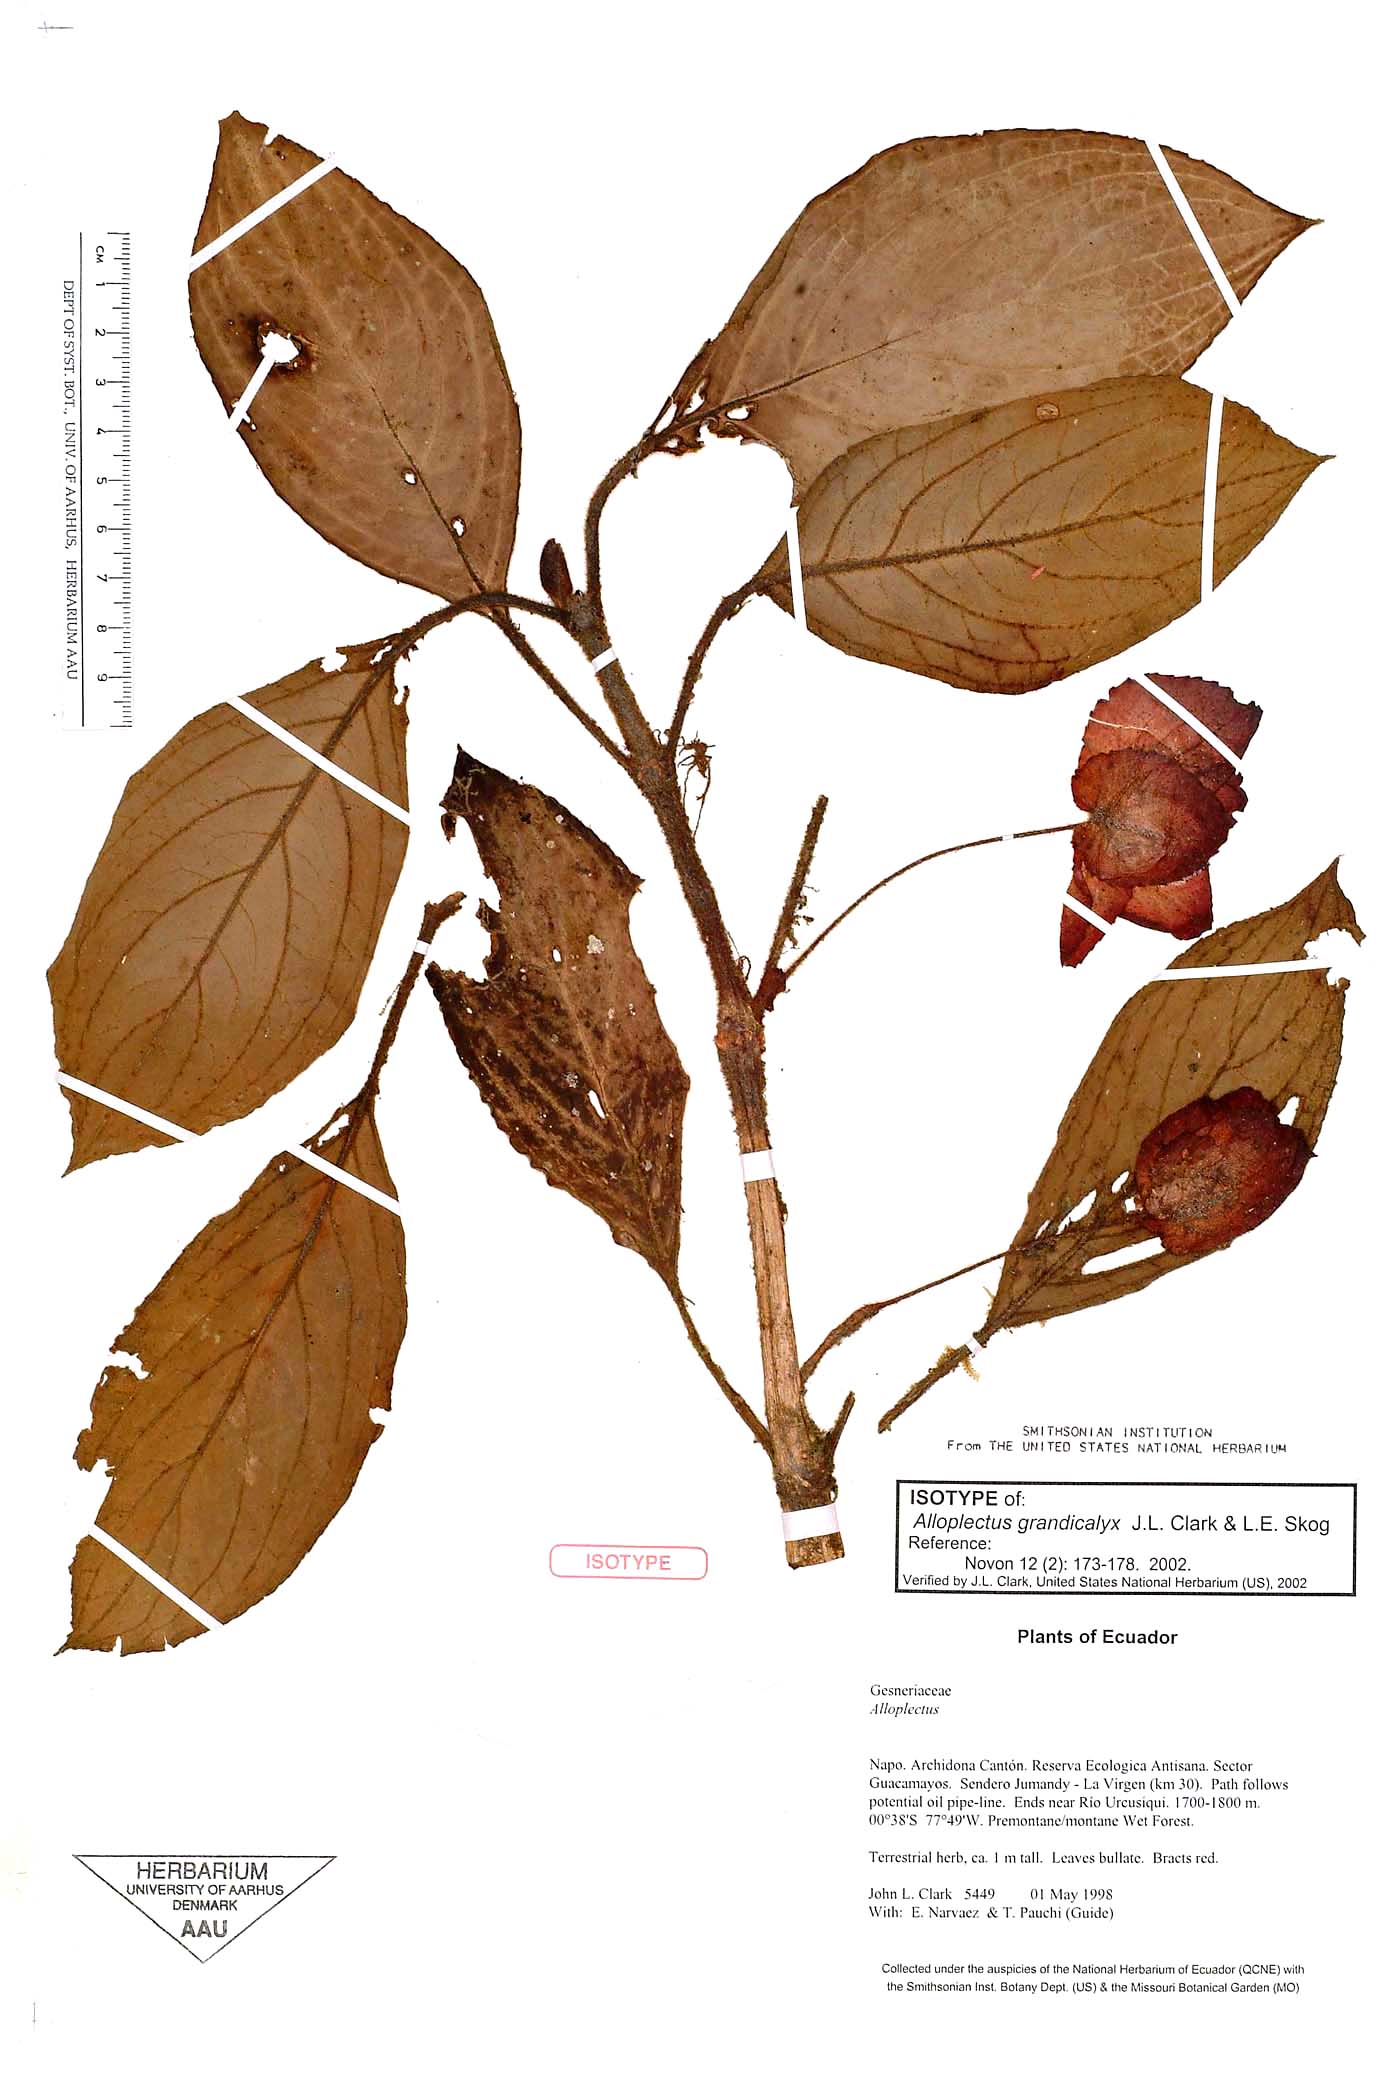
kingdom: Plantae
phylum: Tracheophyta
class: Magnoliopsida
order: Lamiales
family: Gesneriaceae
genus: Glossoloma
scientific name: Glossoloma grandicalyx
